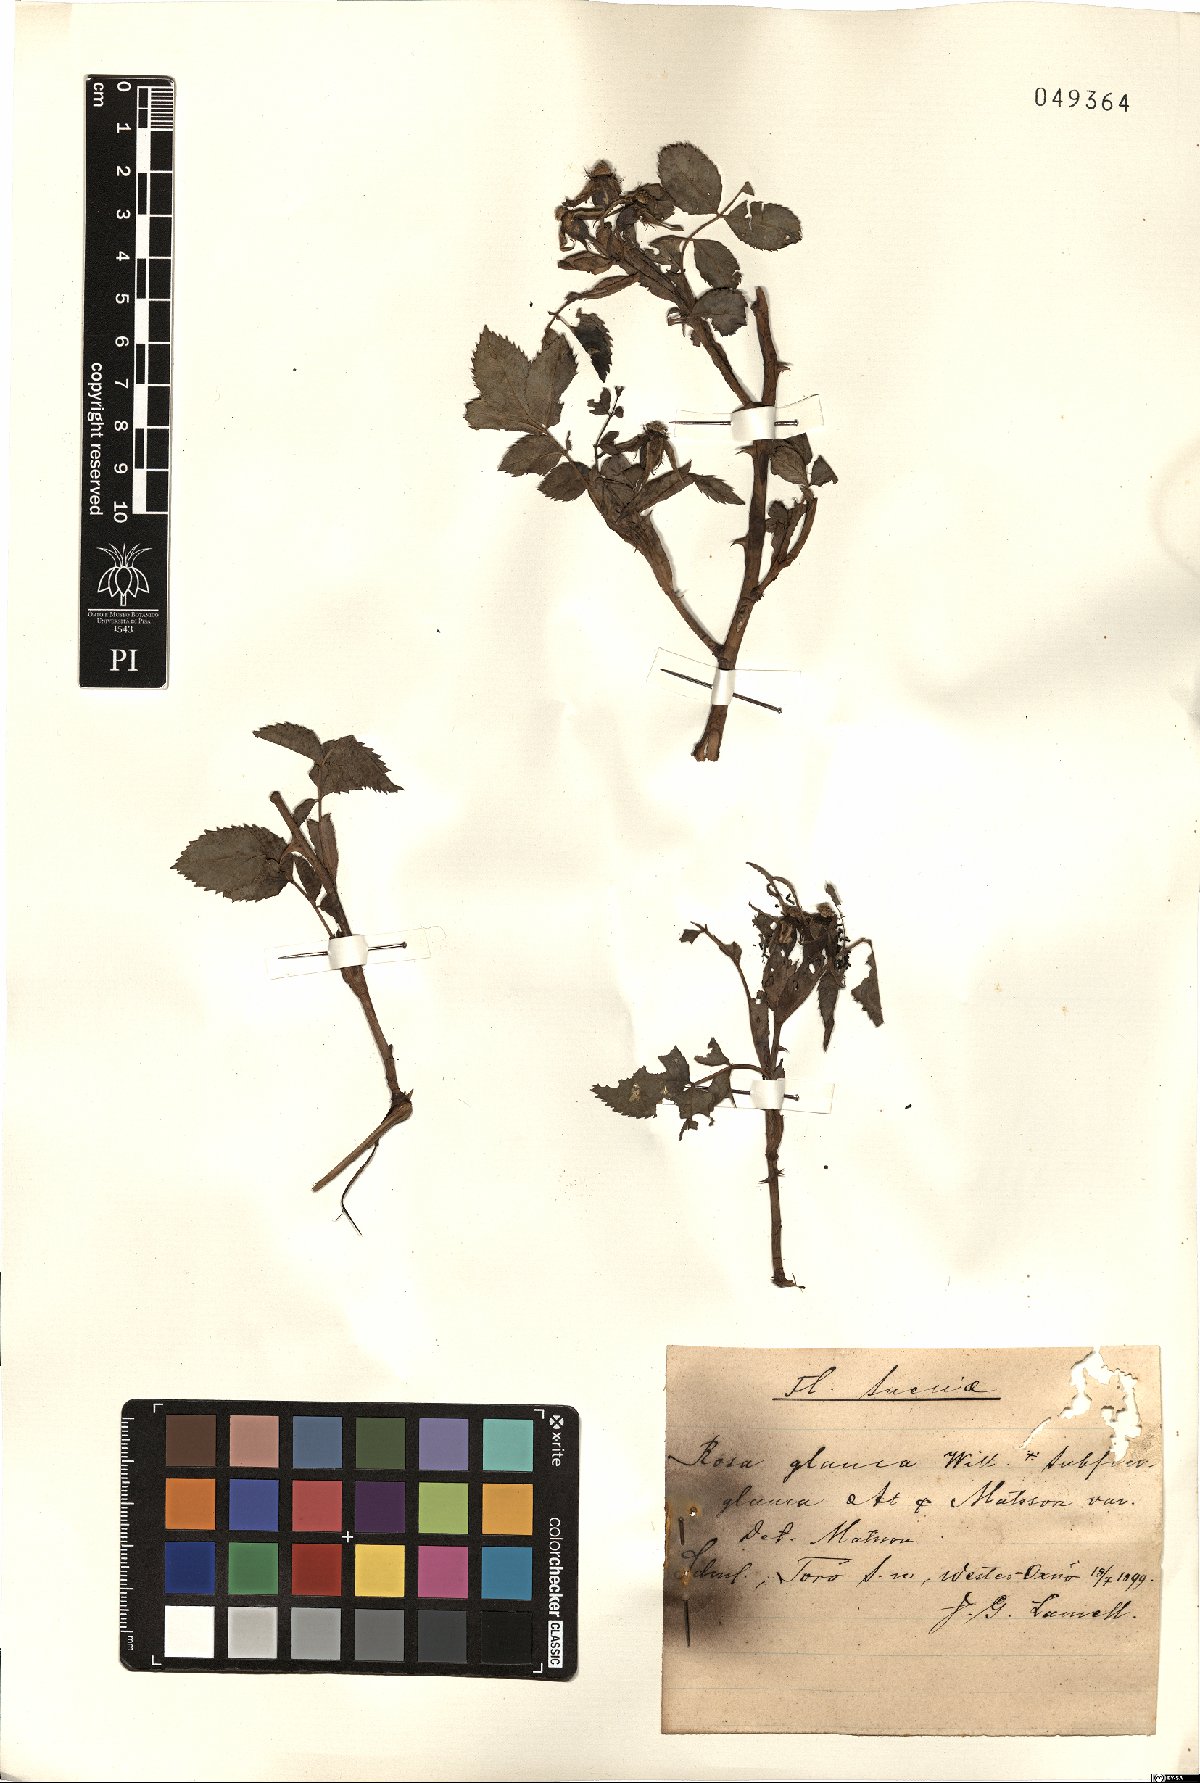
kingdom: Plantae
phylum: Tracheophyta
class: Magnoliopsida
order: Rosales
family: Rosaceae
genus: Rosa
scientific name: Rosa glauca
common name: Redleaf rose
